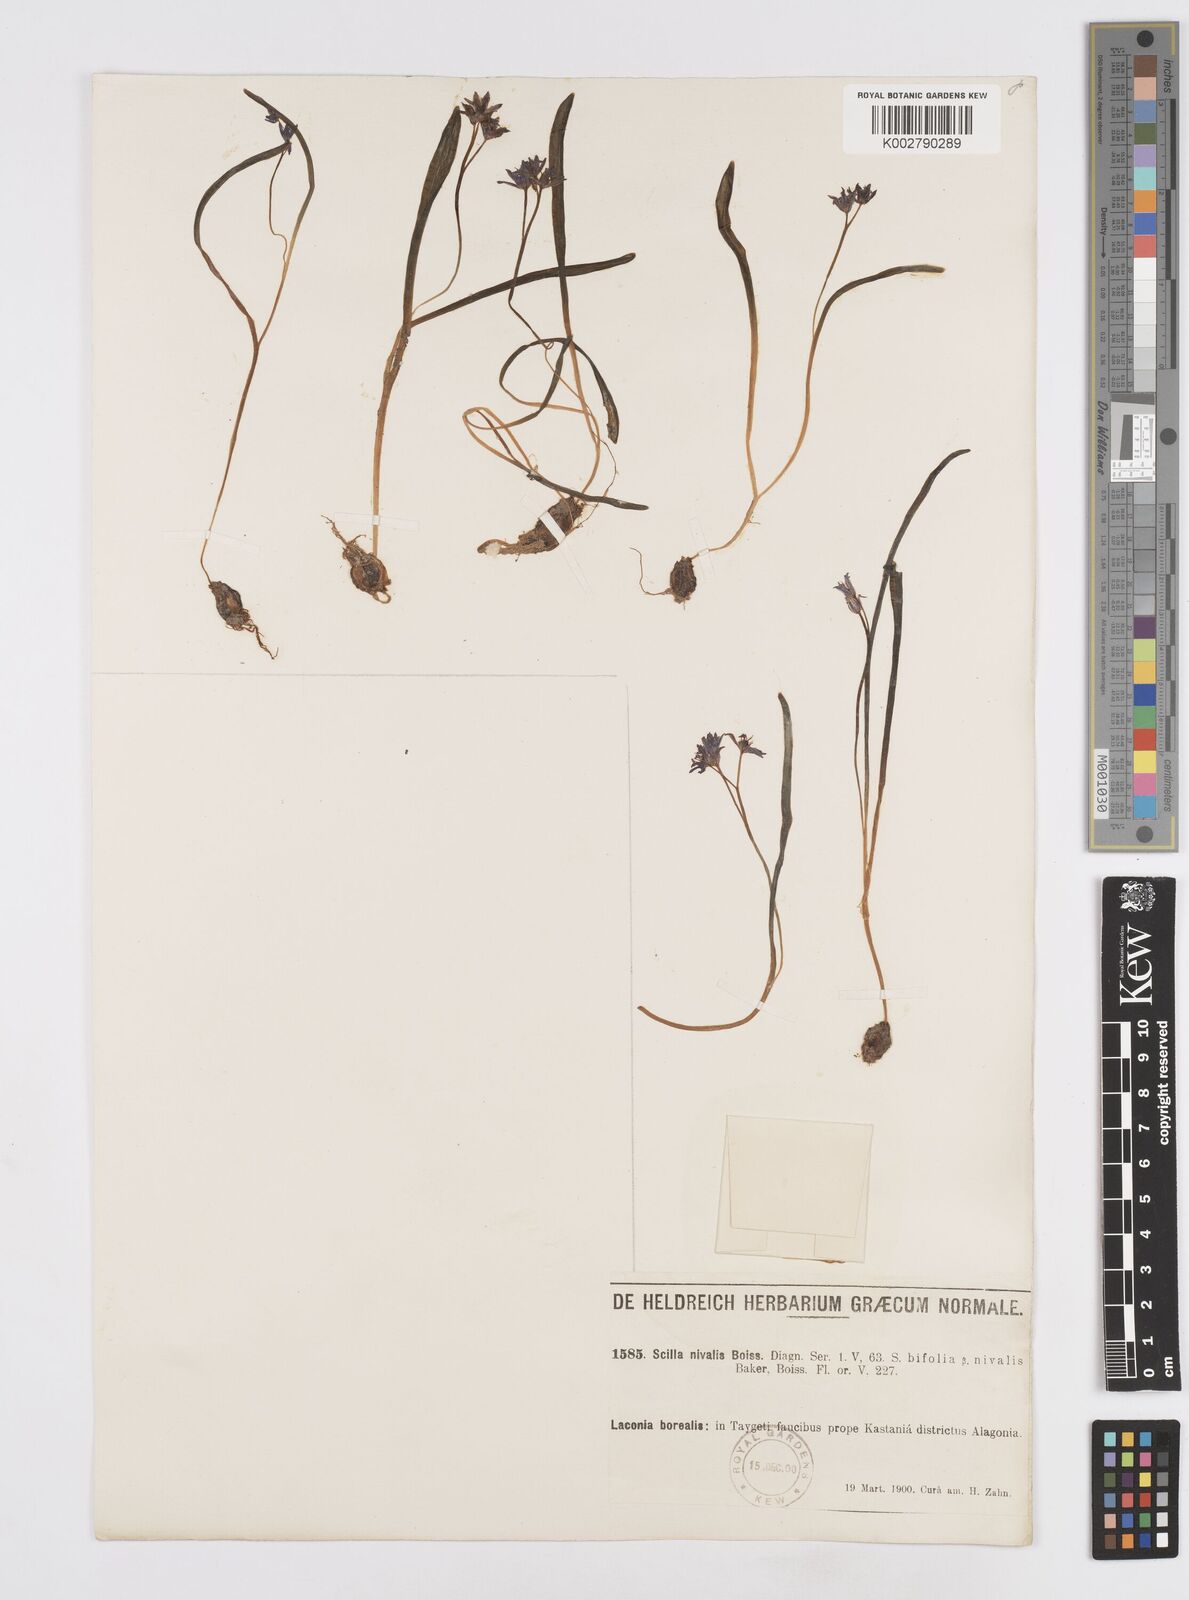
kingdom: Plantae
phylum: Tracheophyta
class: Liliopsida
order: Asparagales
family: Asparagaceae
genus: Scilla
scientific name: Scilla nivalis
